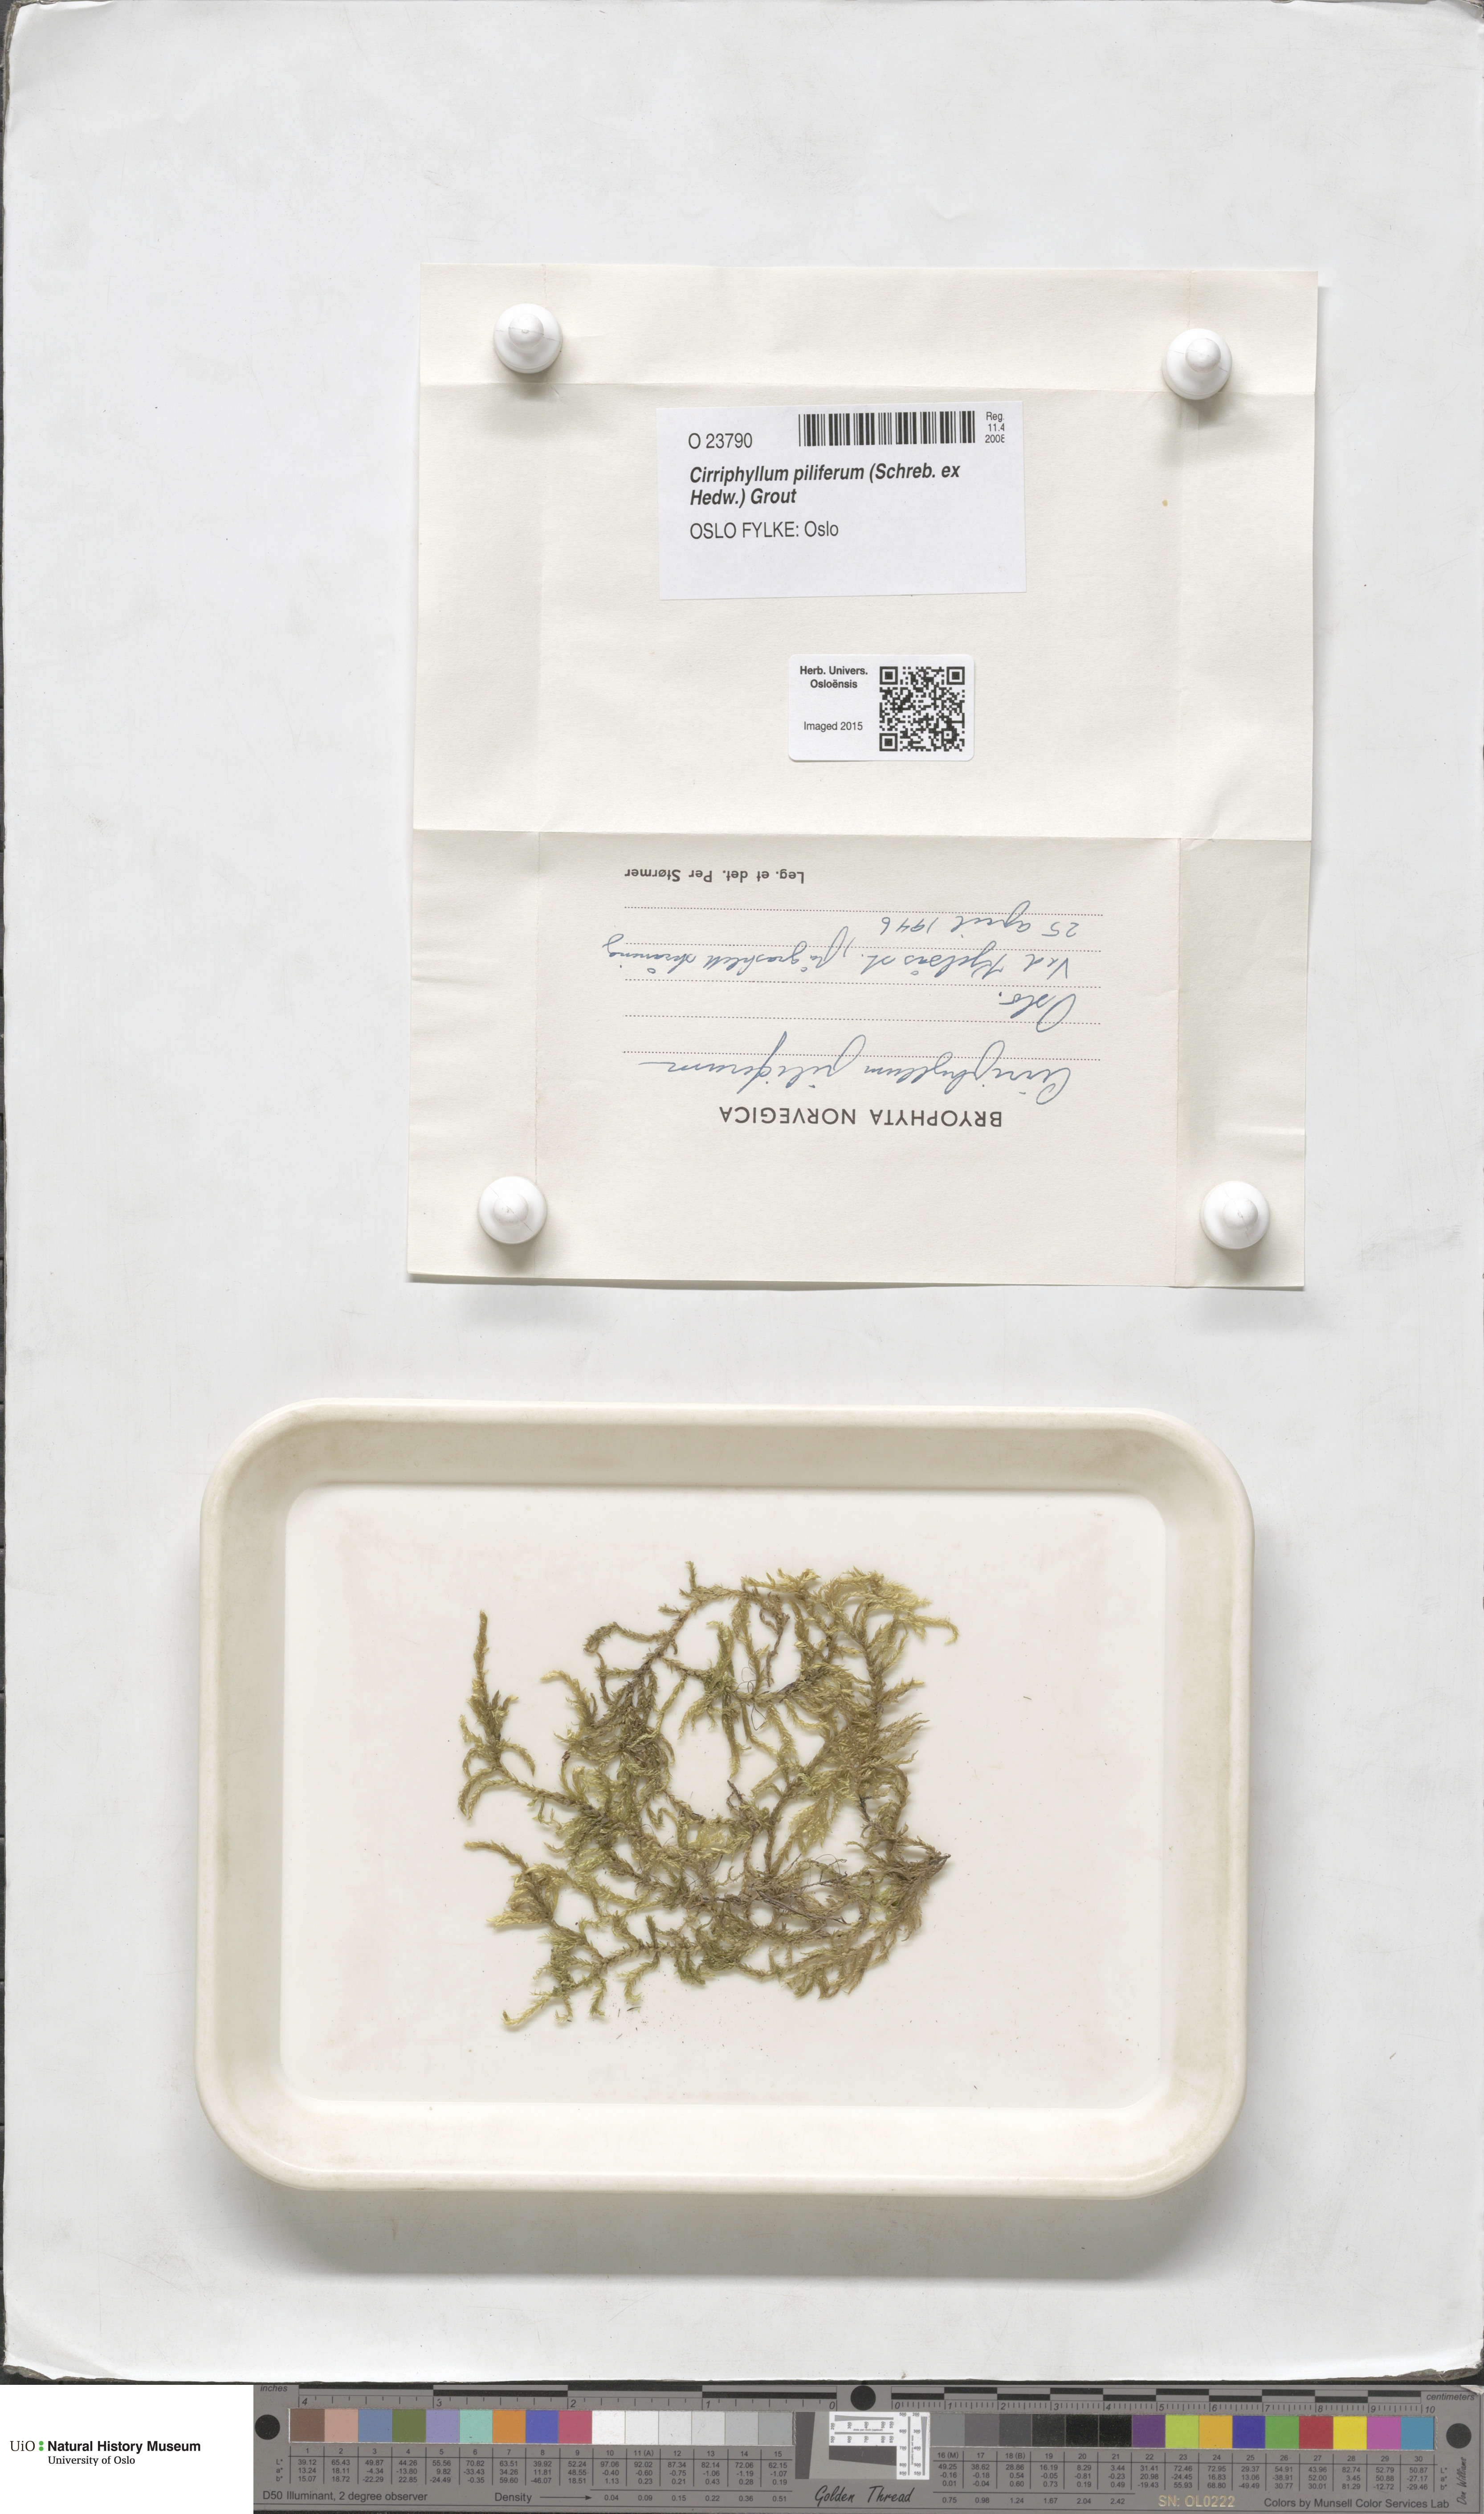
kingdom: Plantae
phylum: Bryophyta
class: Bryopsida
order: Hypnales
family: Brachytheciaceae
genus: Cirriphyllum
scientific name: Cirriphyllum piliferum
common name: Hair-pointed moss
